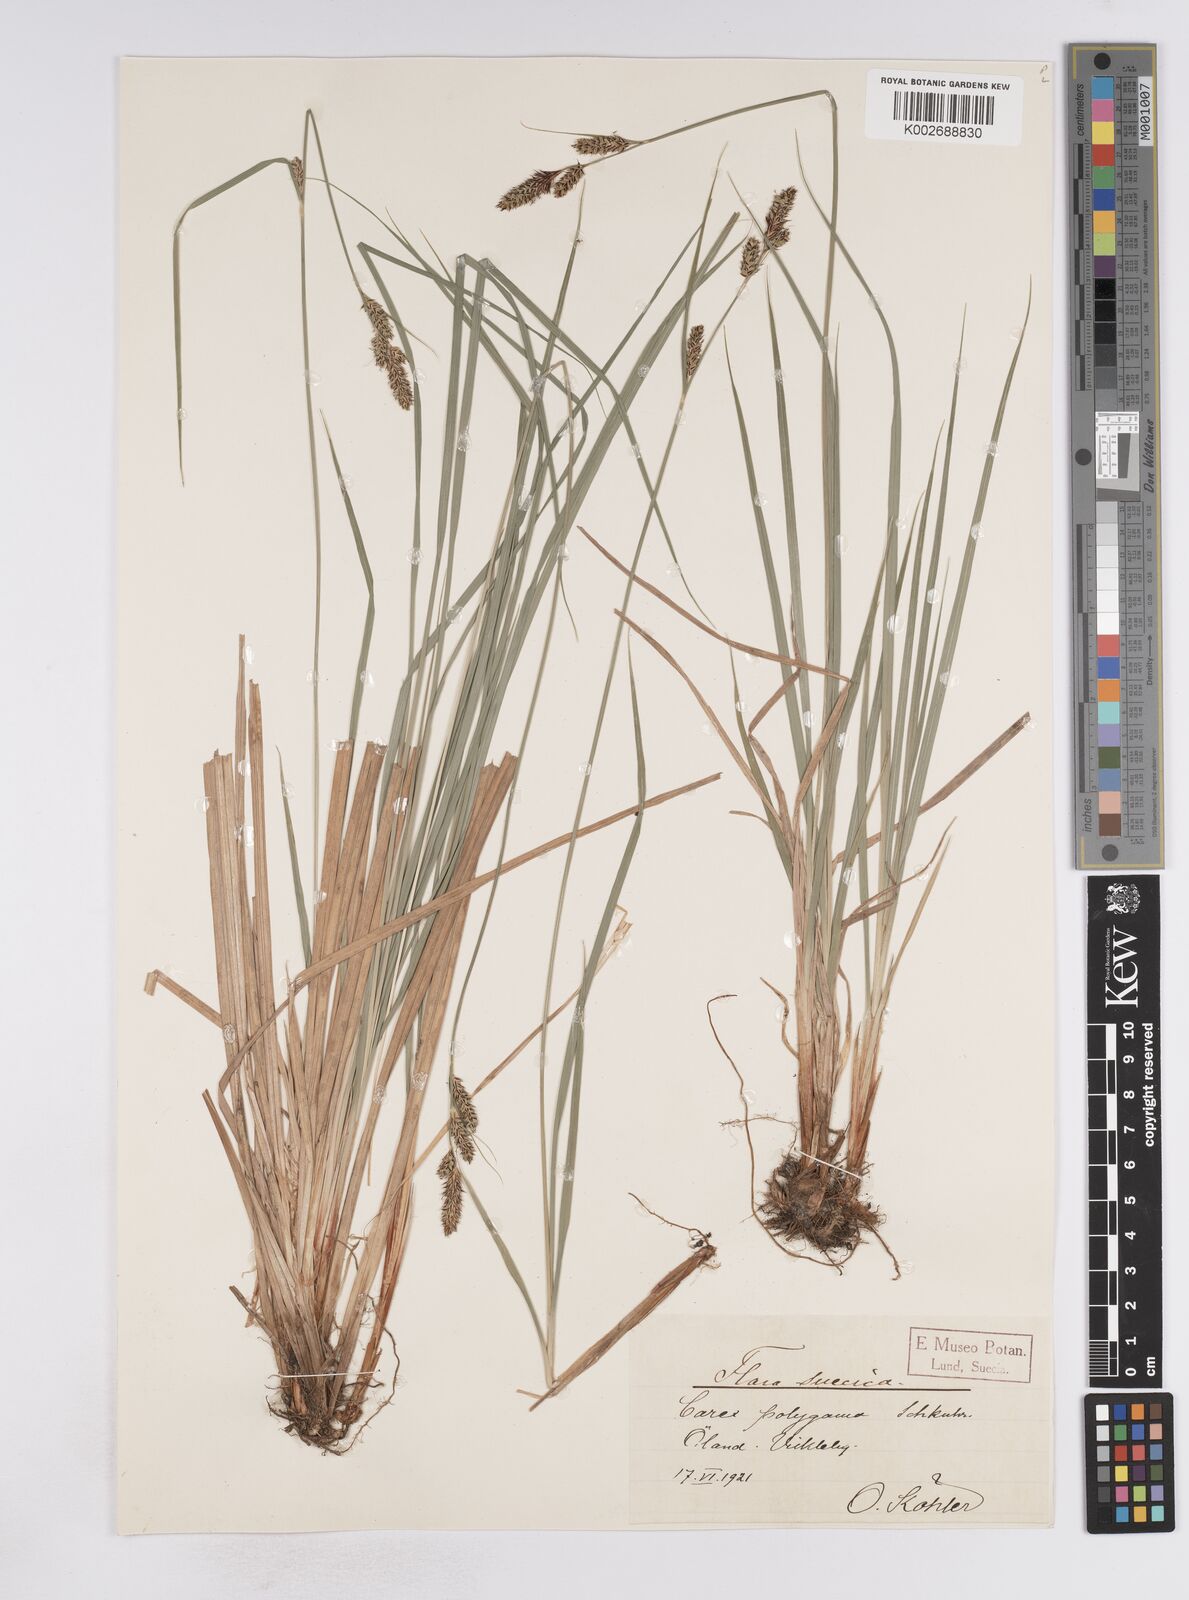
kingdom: Plantae
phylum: Tracheophyta
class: Liliopsida
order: Poales
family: Cyperaceae
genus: Carex
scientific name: Carex buxbaumii
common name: Club sedge
